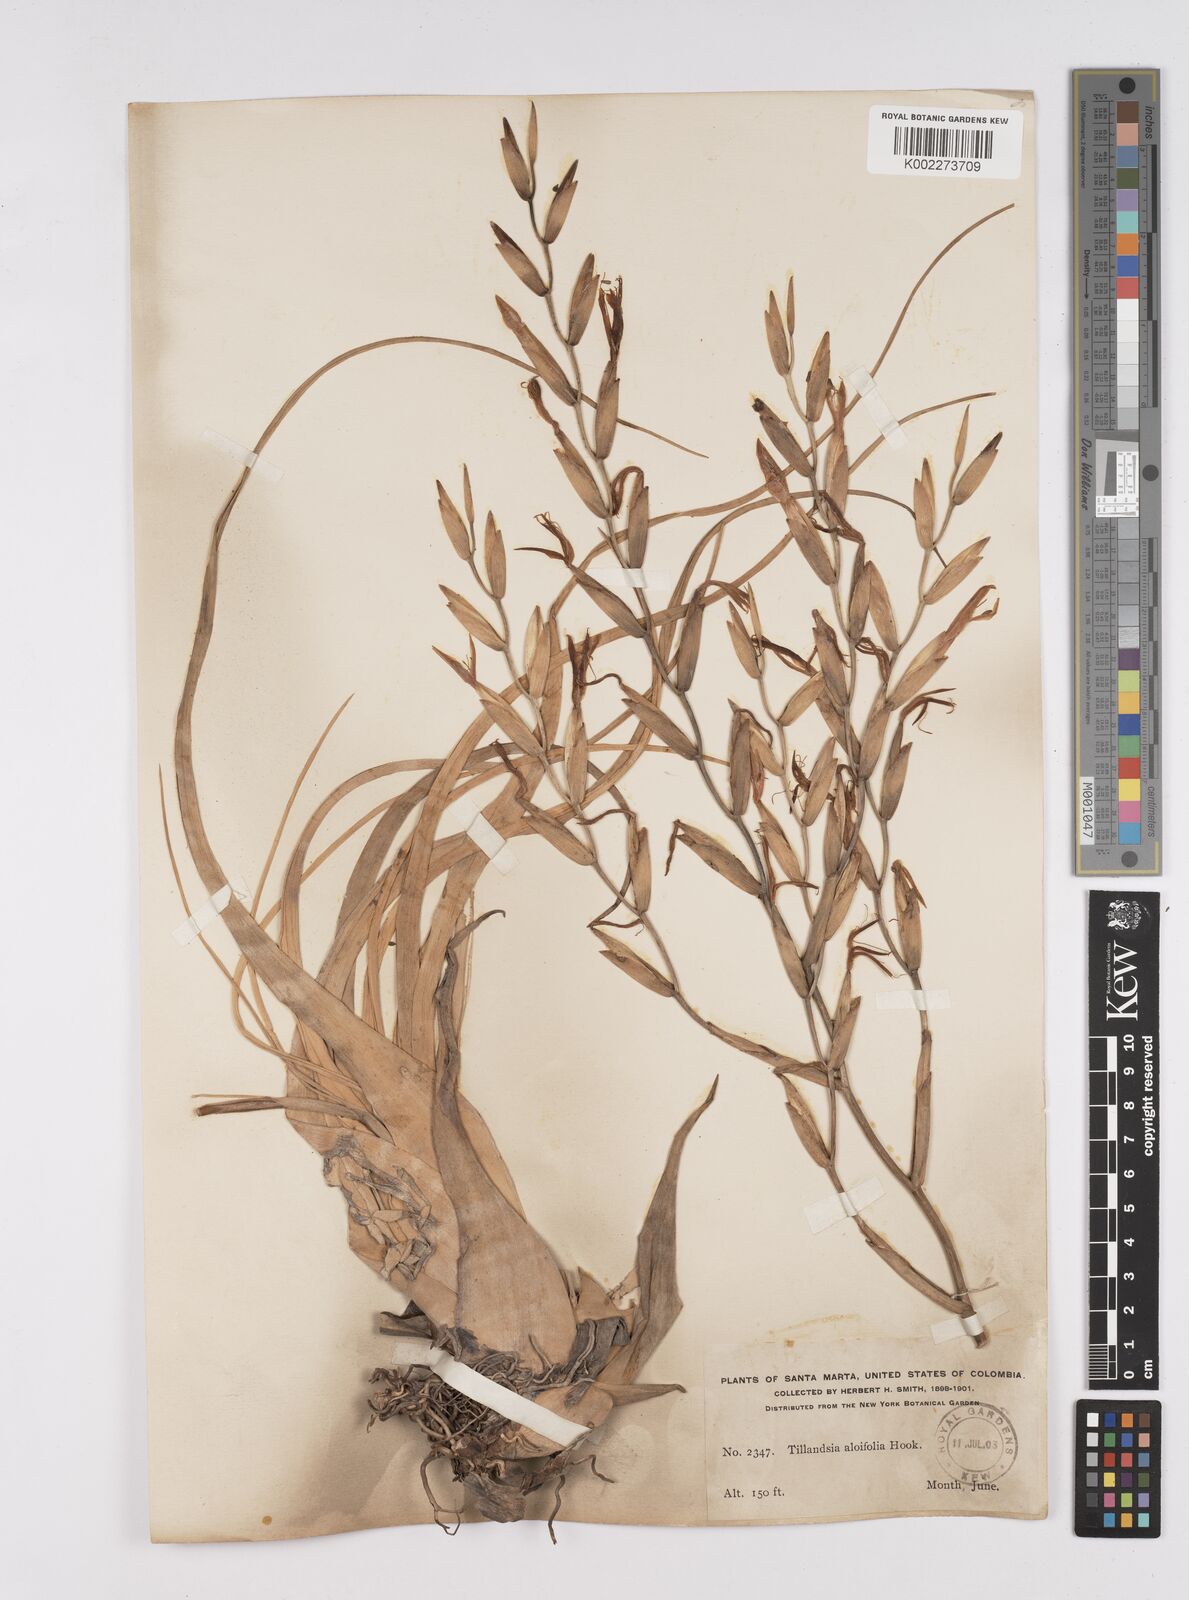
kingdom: Plantae
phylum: Tracheophyta
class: Liliopsida
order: Poales
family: Bromeliaceae
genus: Tillandsia
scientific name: Tillandsia flexuosa
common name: Banded airplant
